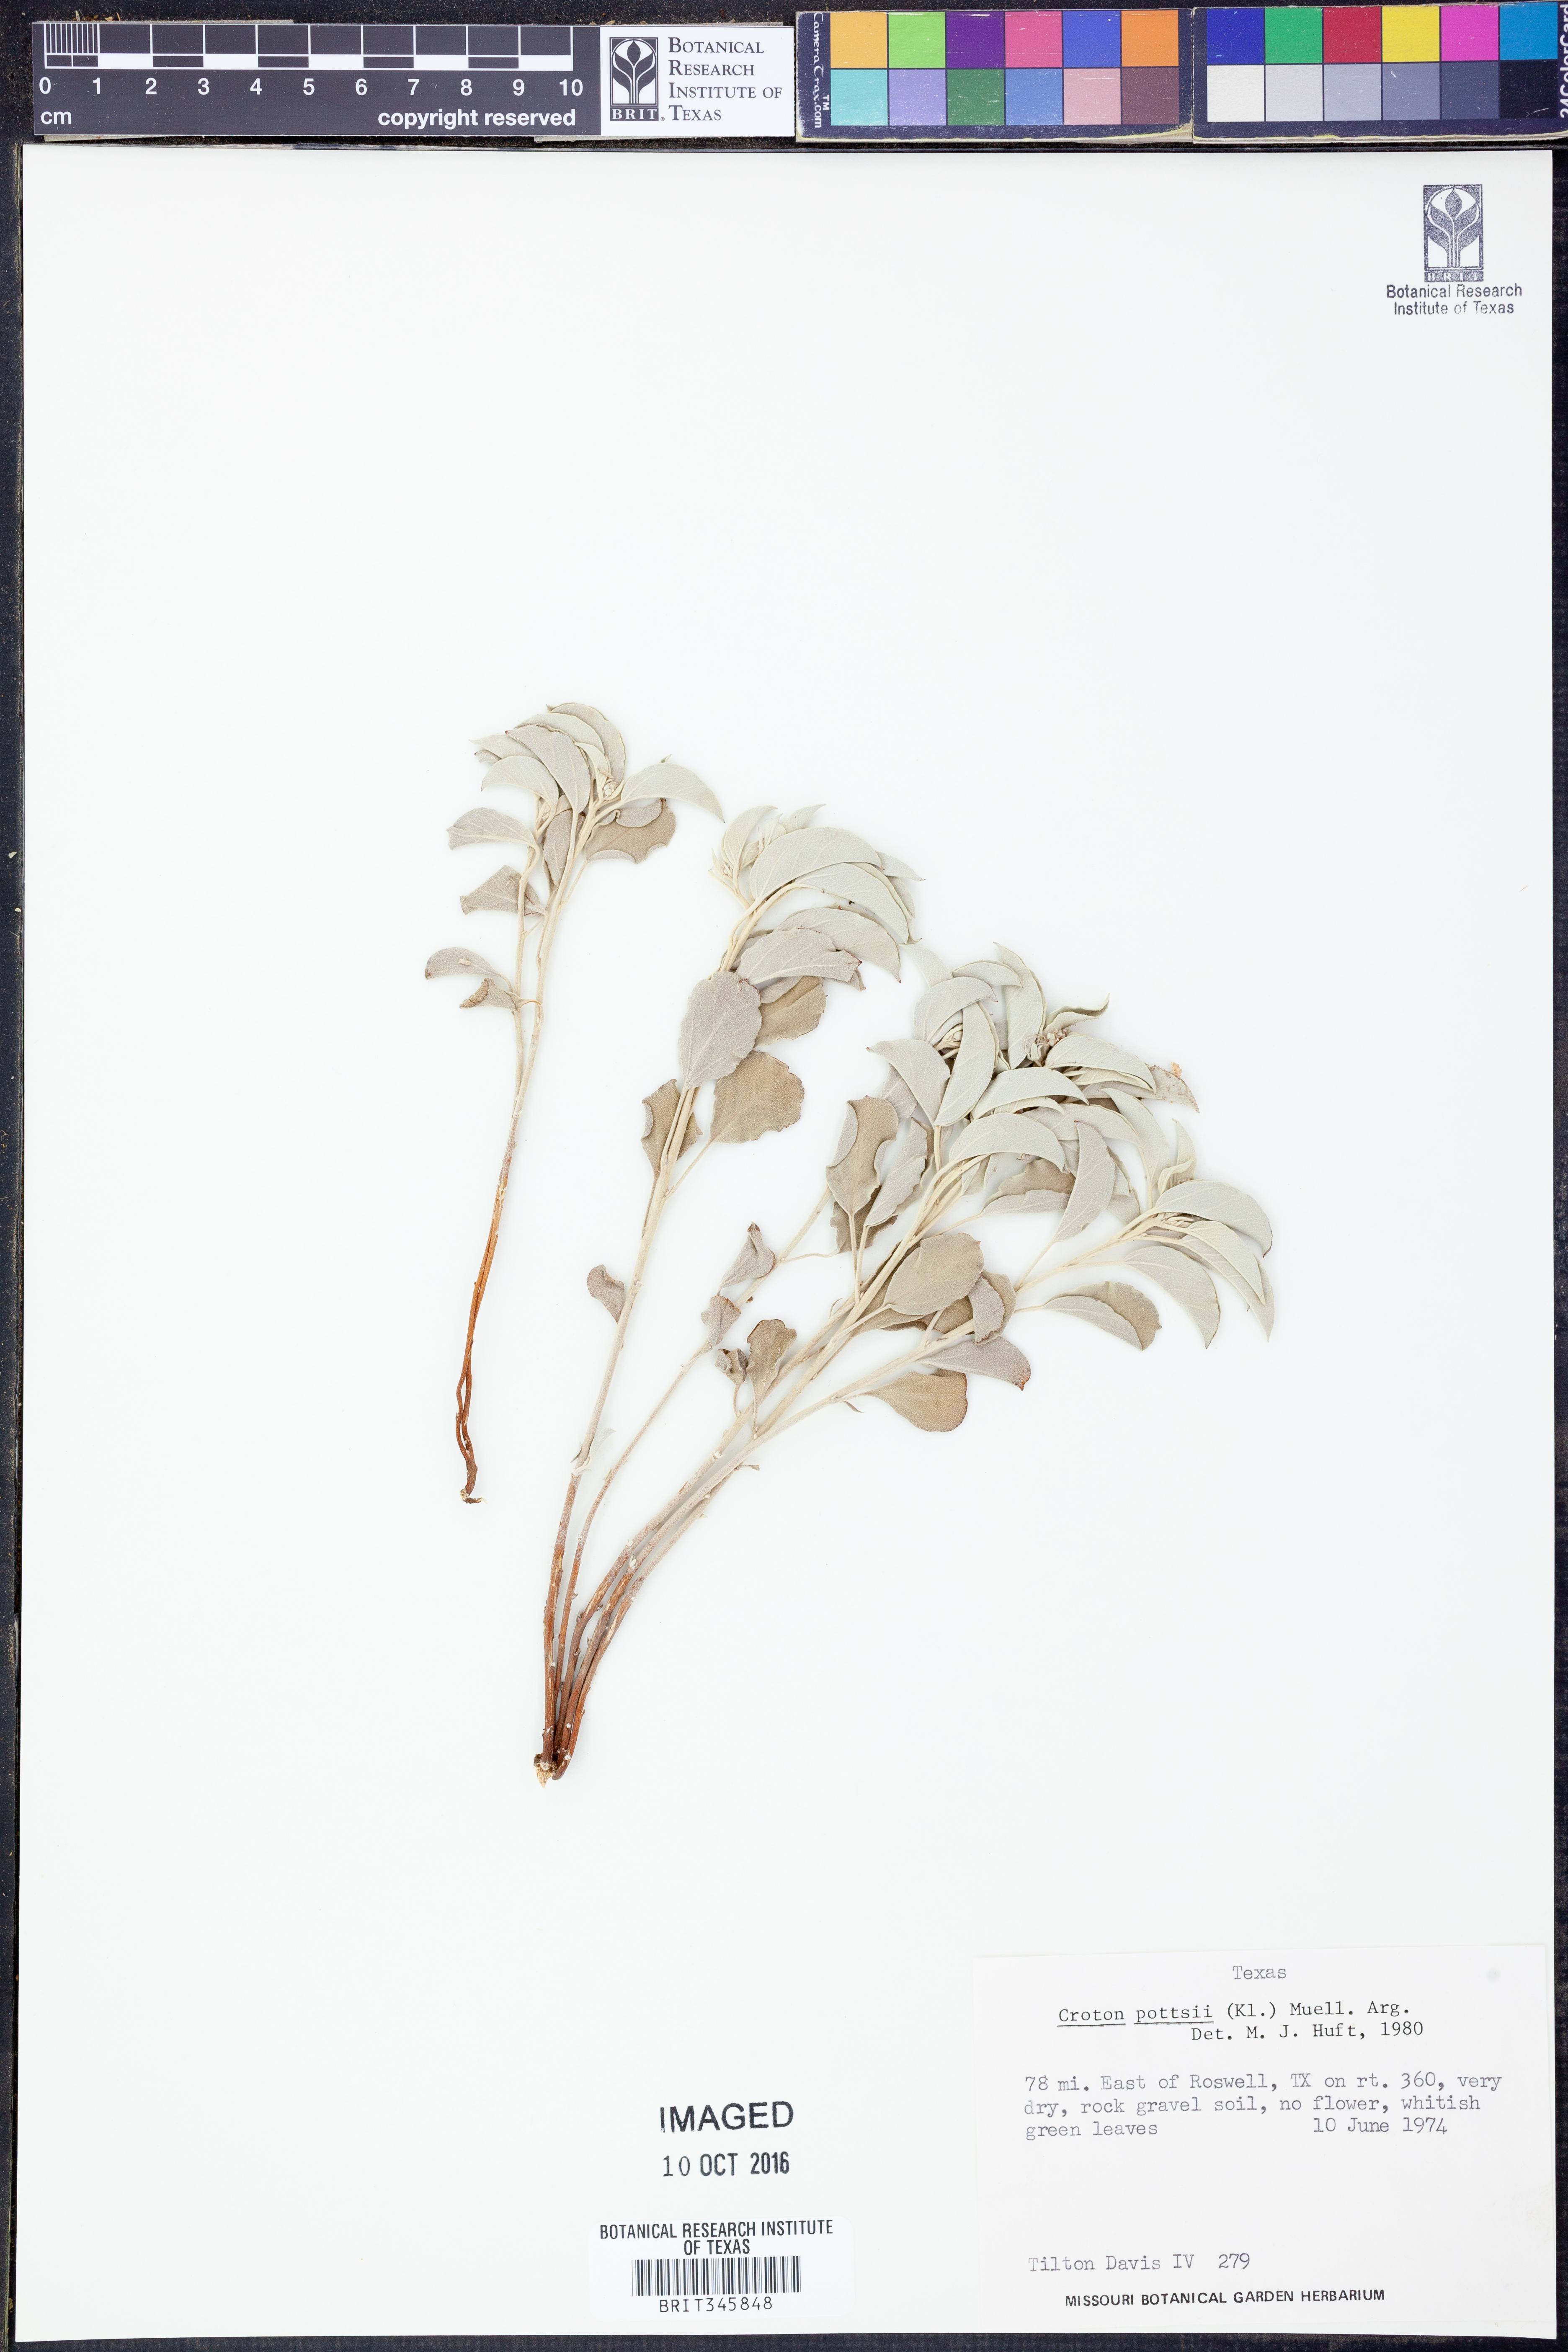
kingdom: Plantae
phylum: Tracheophyta
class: Magnoliopsida
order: Malpighiales
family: Euphorbiaceae
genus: Croton
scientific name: Croton pottsii
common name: Leatherweed
